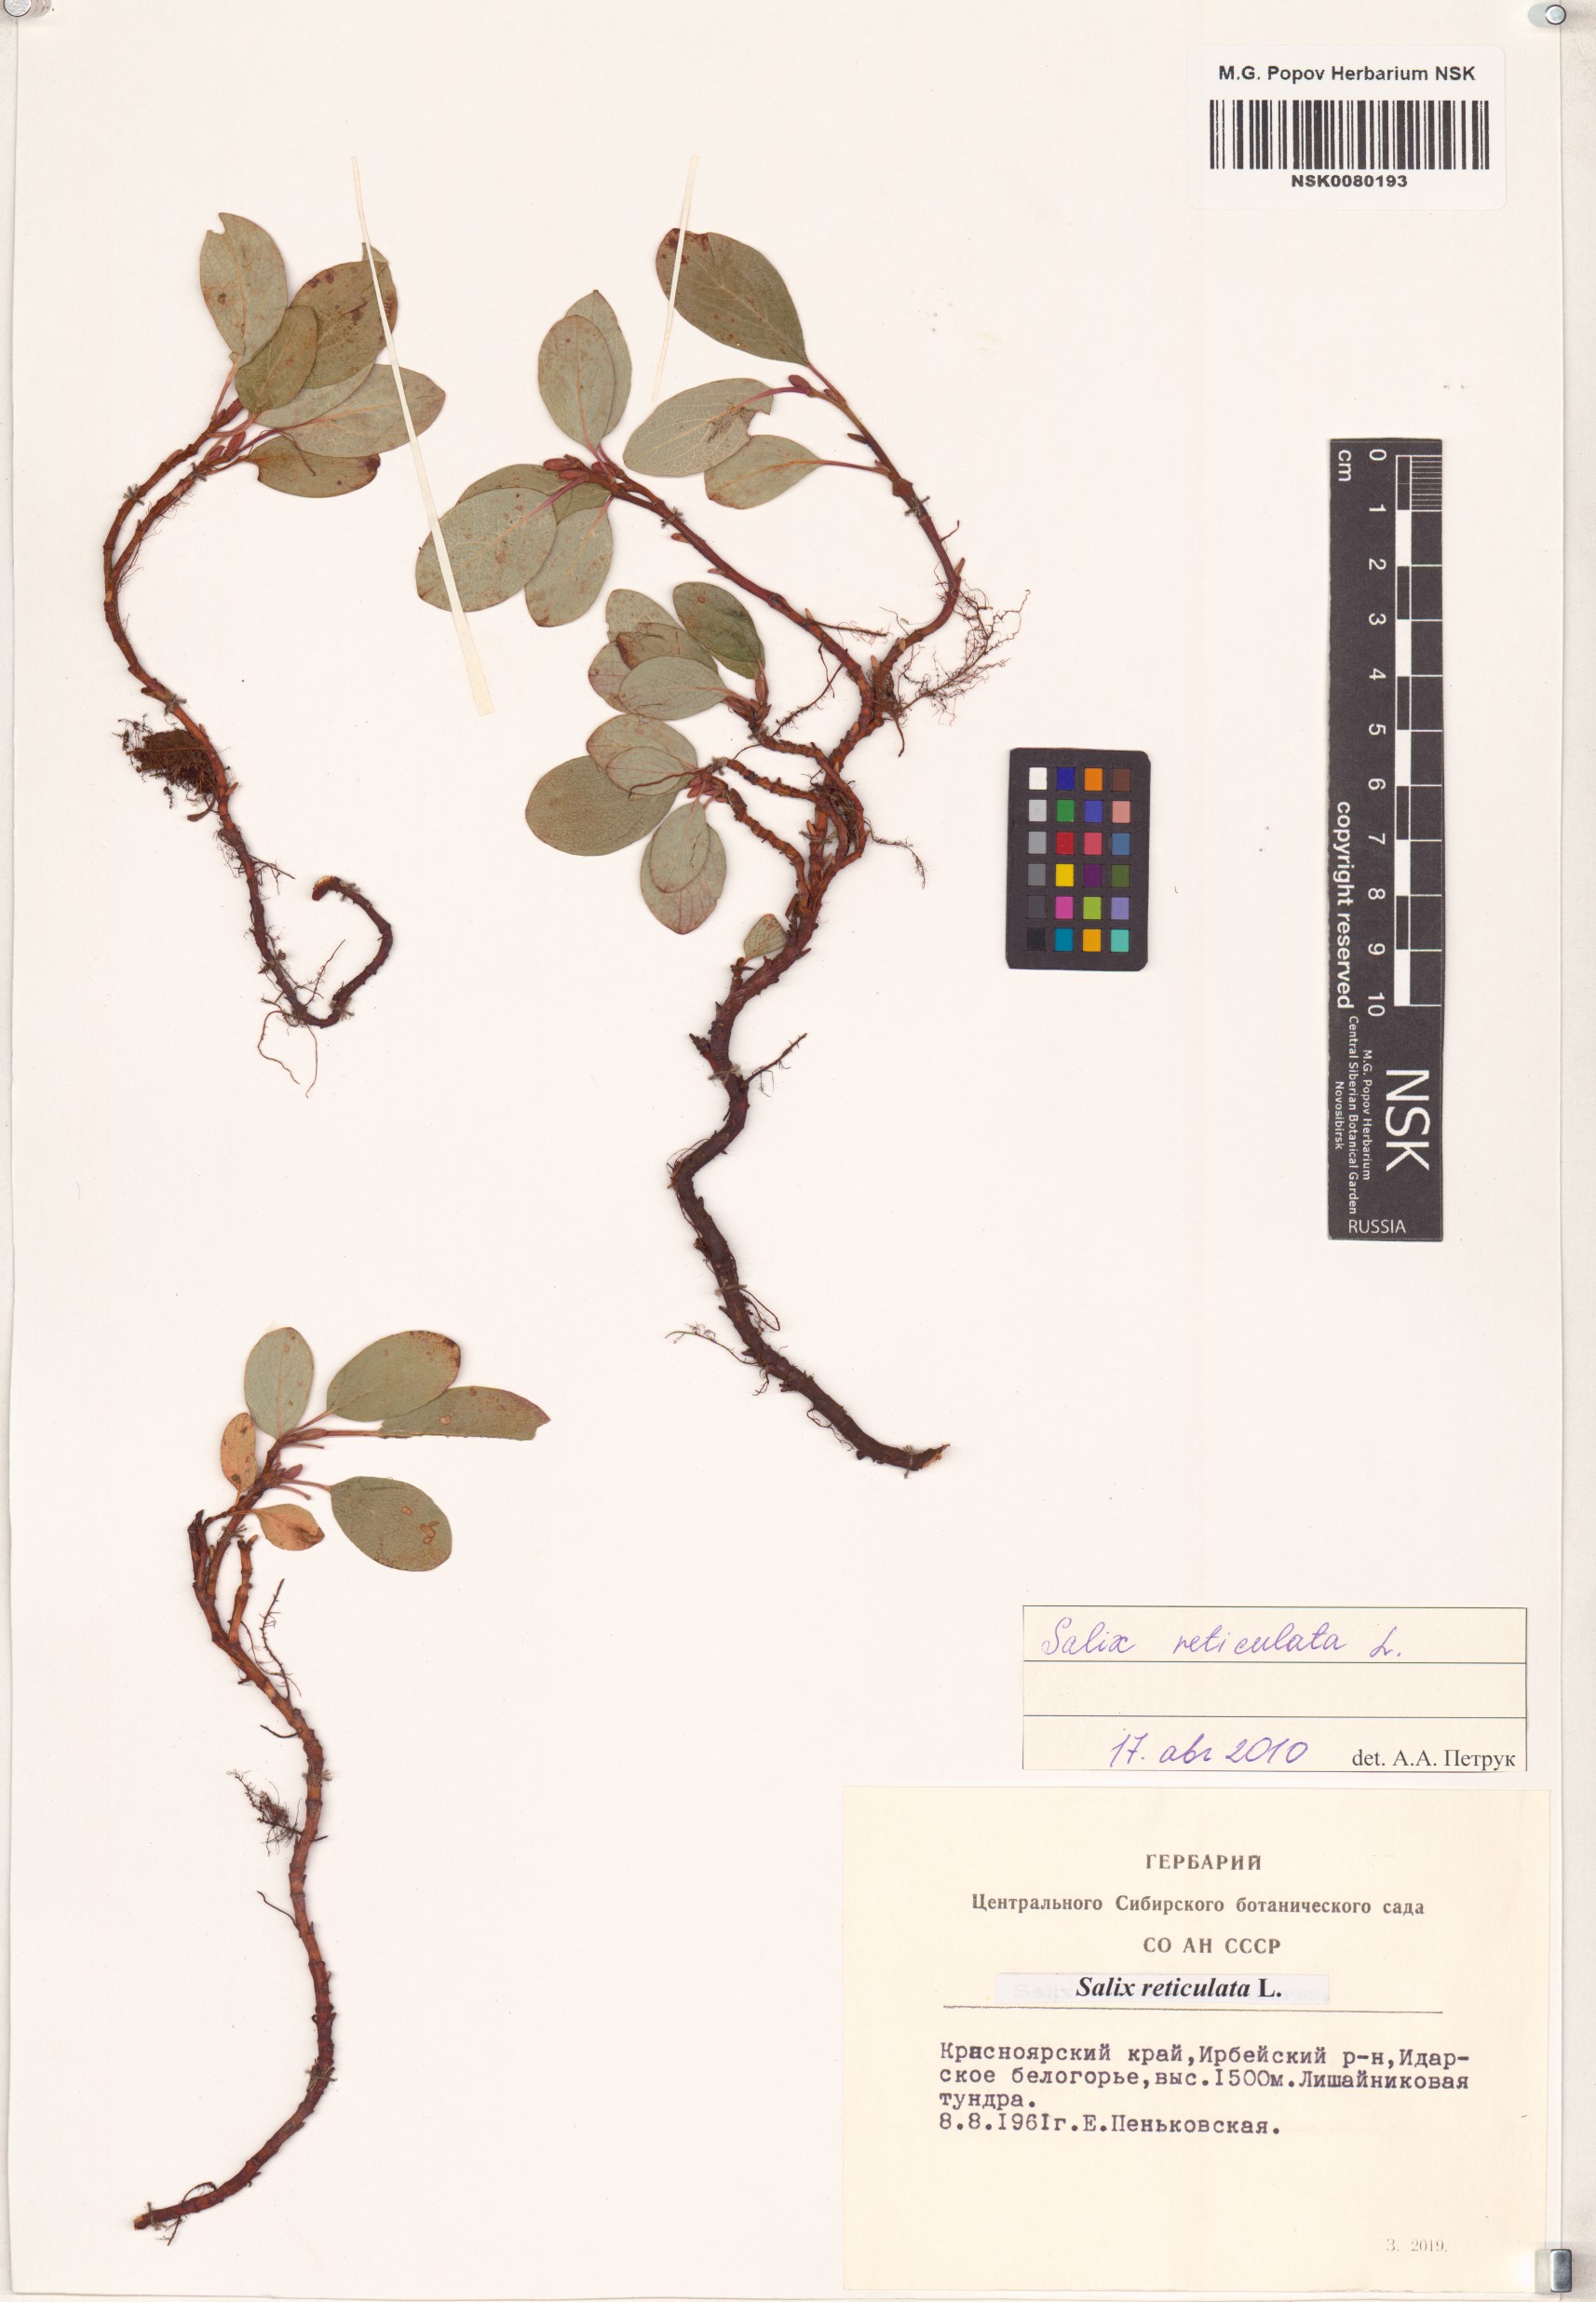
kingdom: Plantae
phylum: Tracheophyta
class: Magnoliopsida
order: Malpighiales
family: Salicaceae
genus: Salix
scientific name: Salix reticulata
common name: Net-leaved willow
